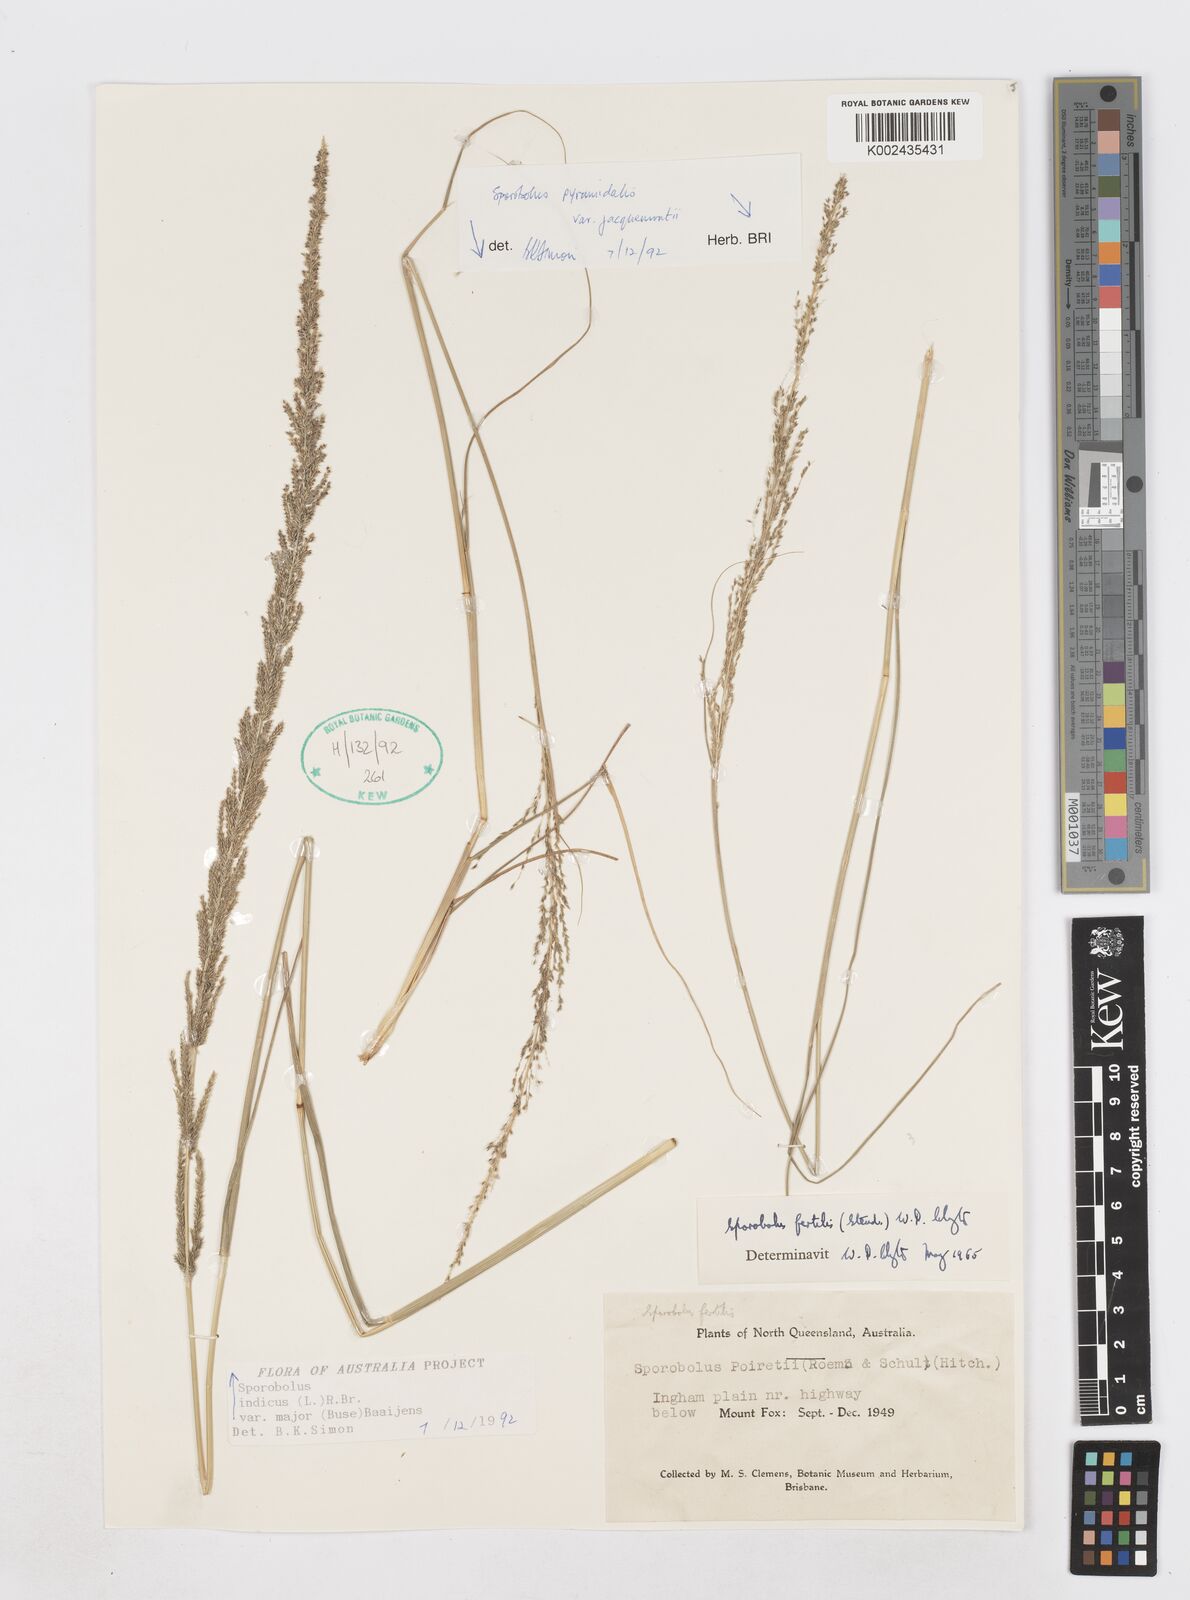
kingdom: Plantae
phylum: Tracheophyta
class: Liliopsida
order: Poales
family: Poaceae
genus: Sporobolus
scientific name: Sporobolus fertilis
